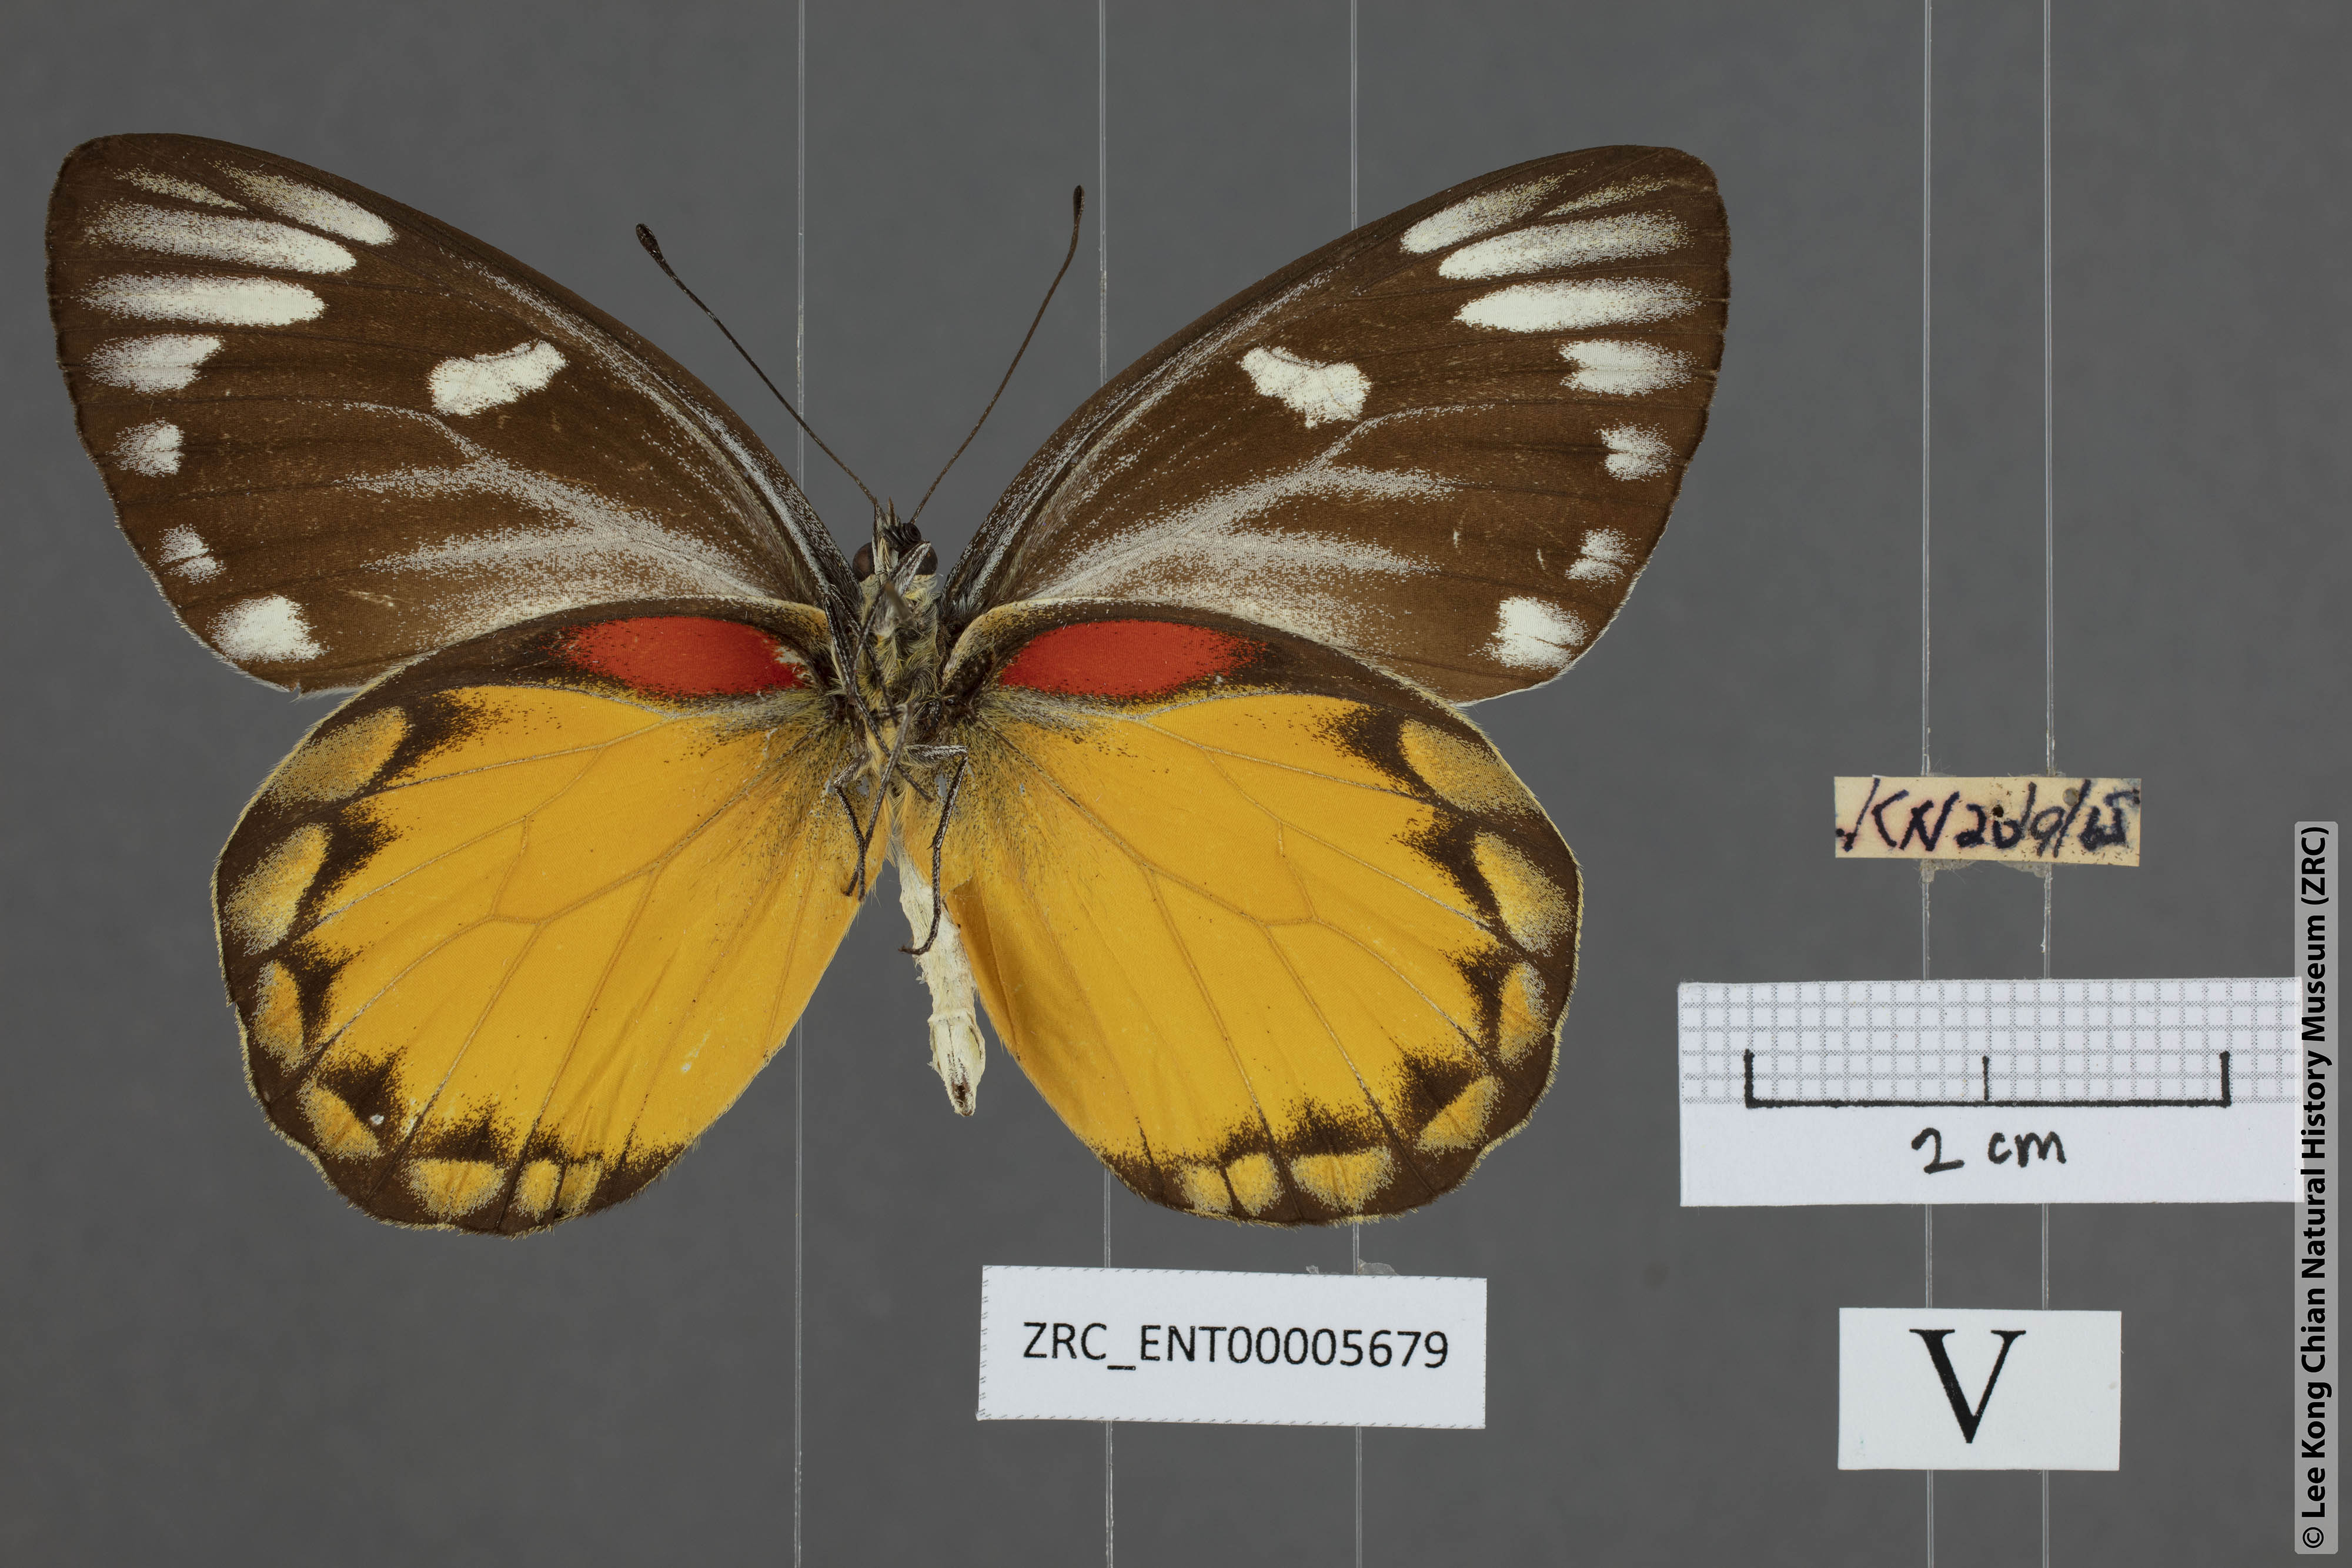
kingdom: Animalia
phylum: Arthropoda
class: Insecta
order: Lepidoptera
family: Pieridae
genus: Delias
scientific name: Delias descombesi
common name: Red-spot jezebel
